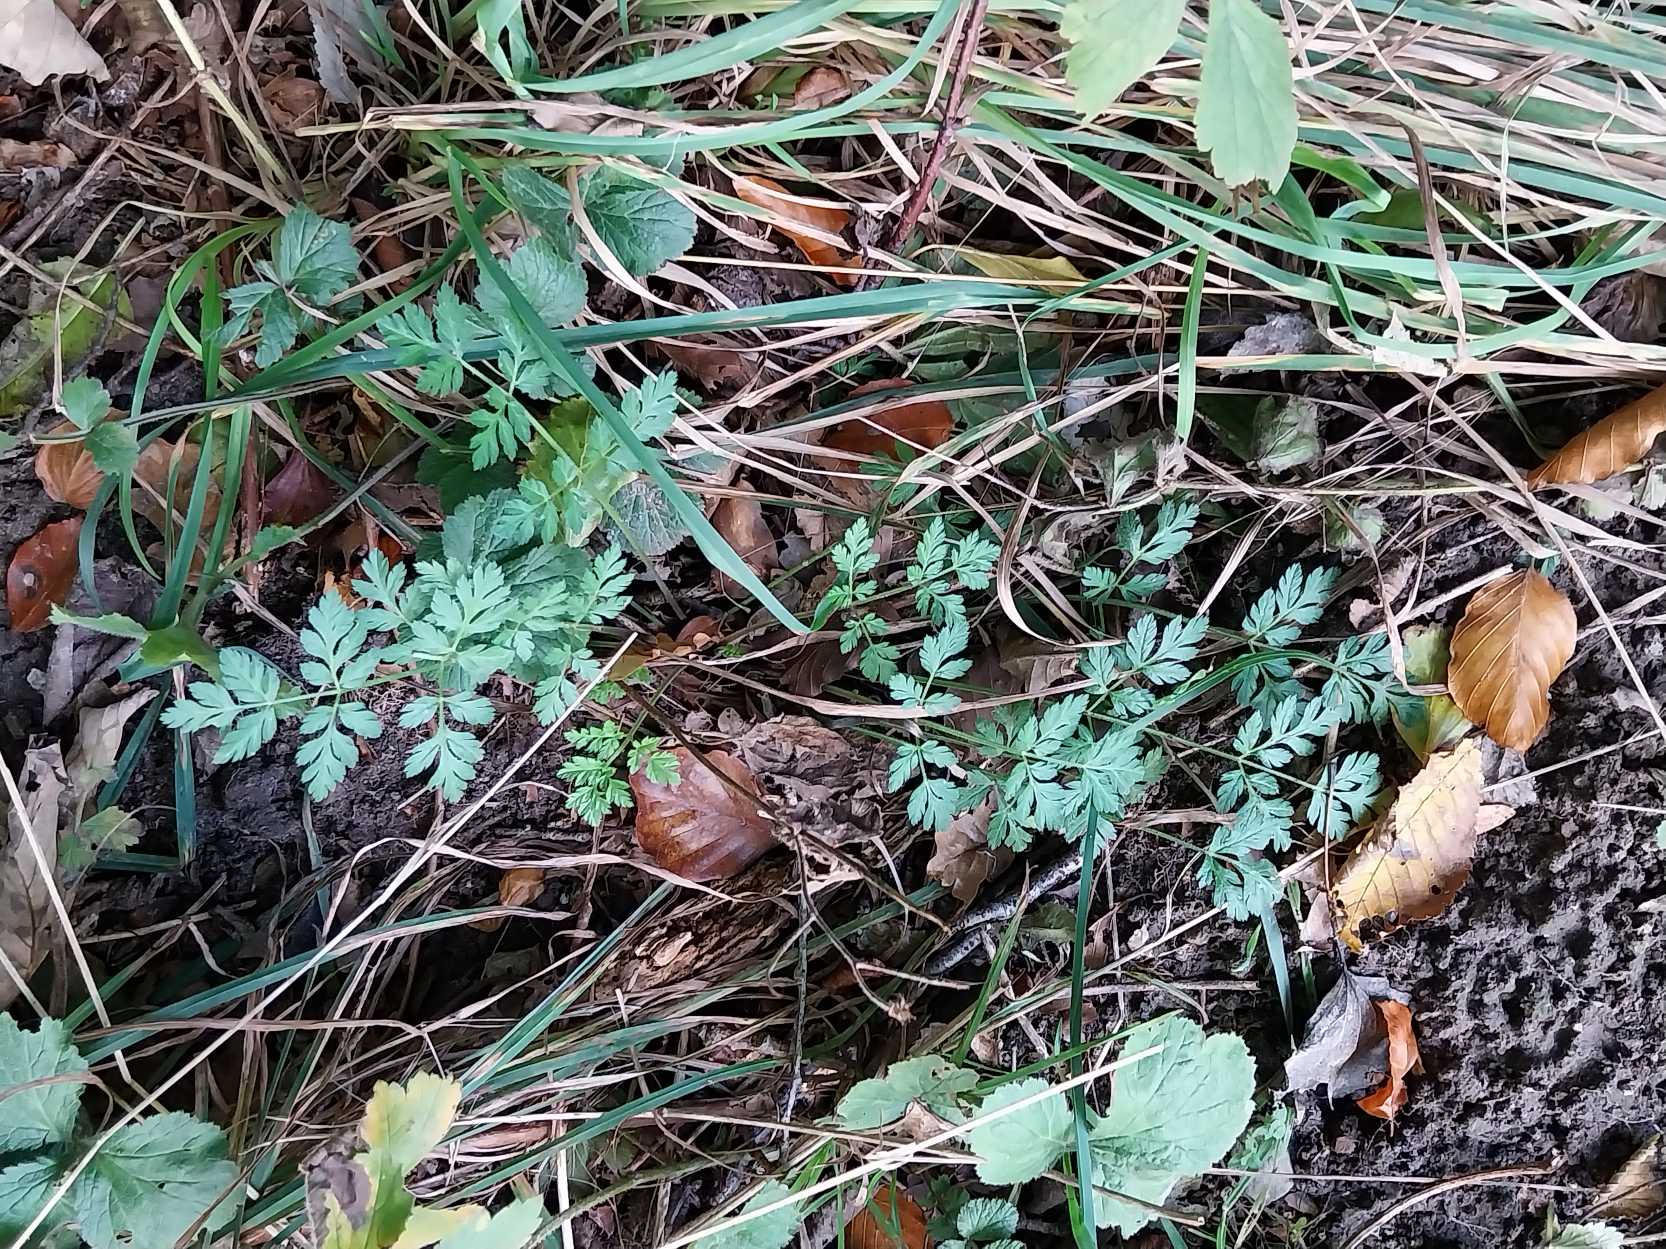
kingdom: Plantae
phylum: Tracheophyta
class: Magnoliopsida
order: Apiales
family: Apiaceae
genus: Chaerophyllum
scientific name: Chaerophyllum temulum
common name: Almindelig hulsvøb
